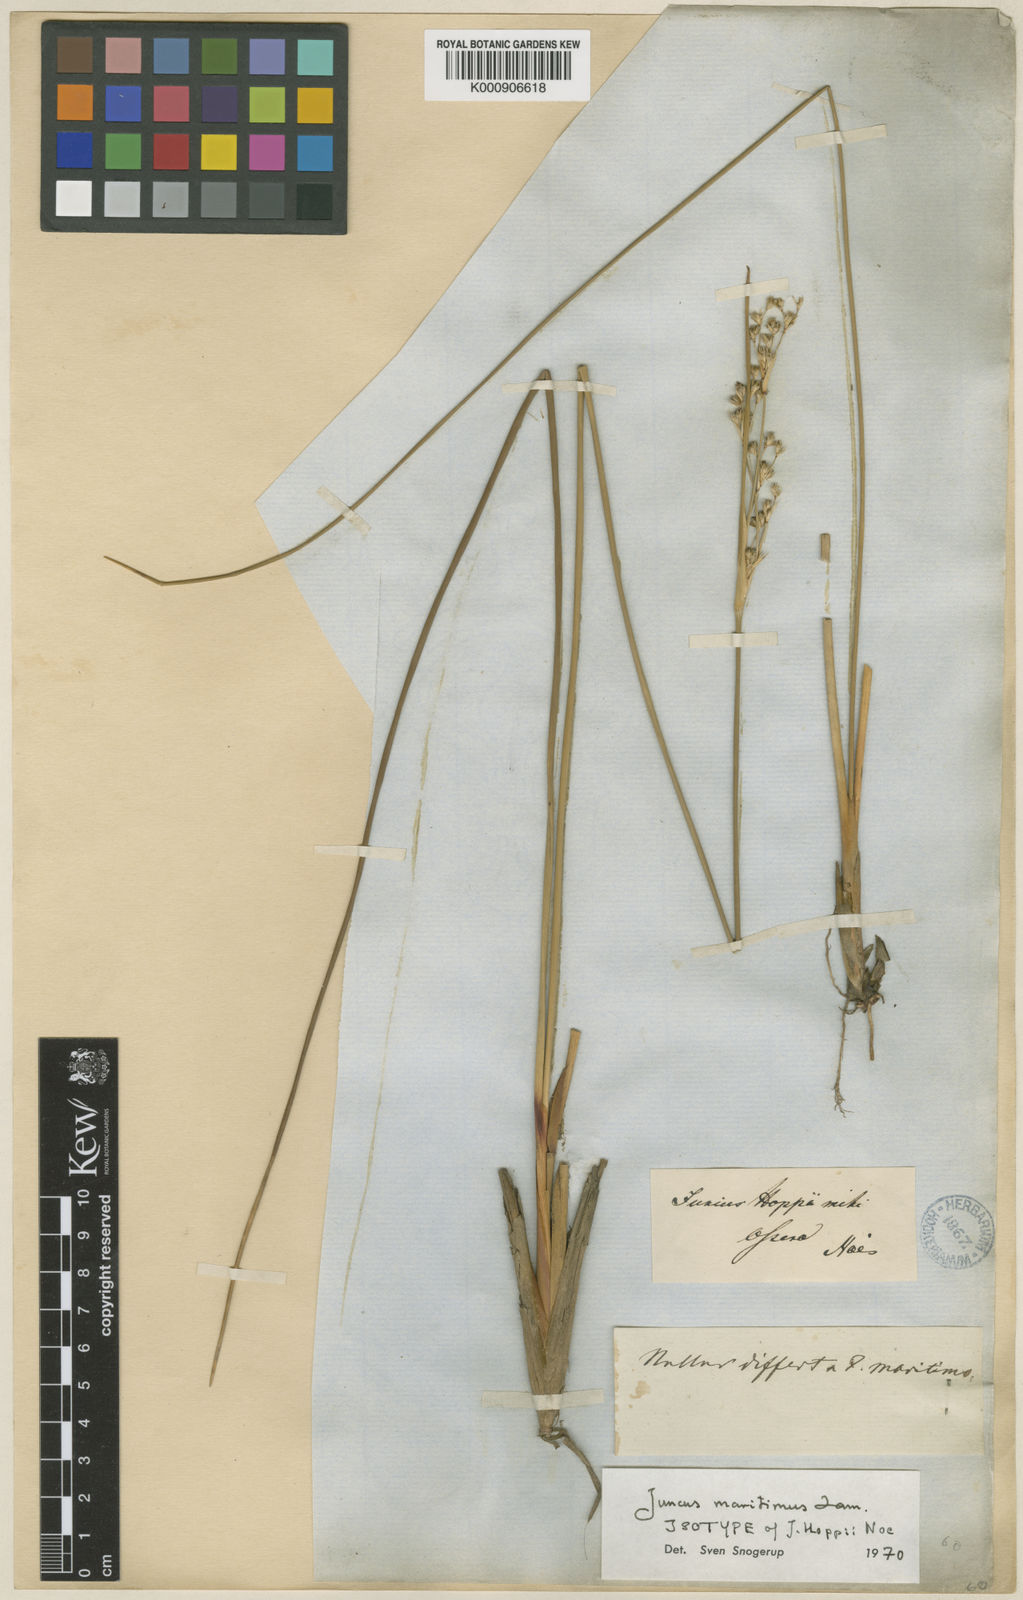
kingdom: Plantae
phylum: Tracheophyta
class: Liliopsida
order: Poales
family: Juncaceae
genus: Juncus
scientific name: Juncus maritimus
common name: Sea rush
